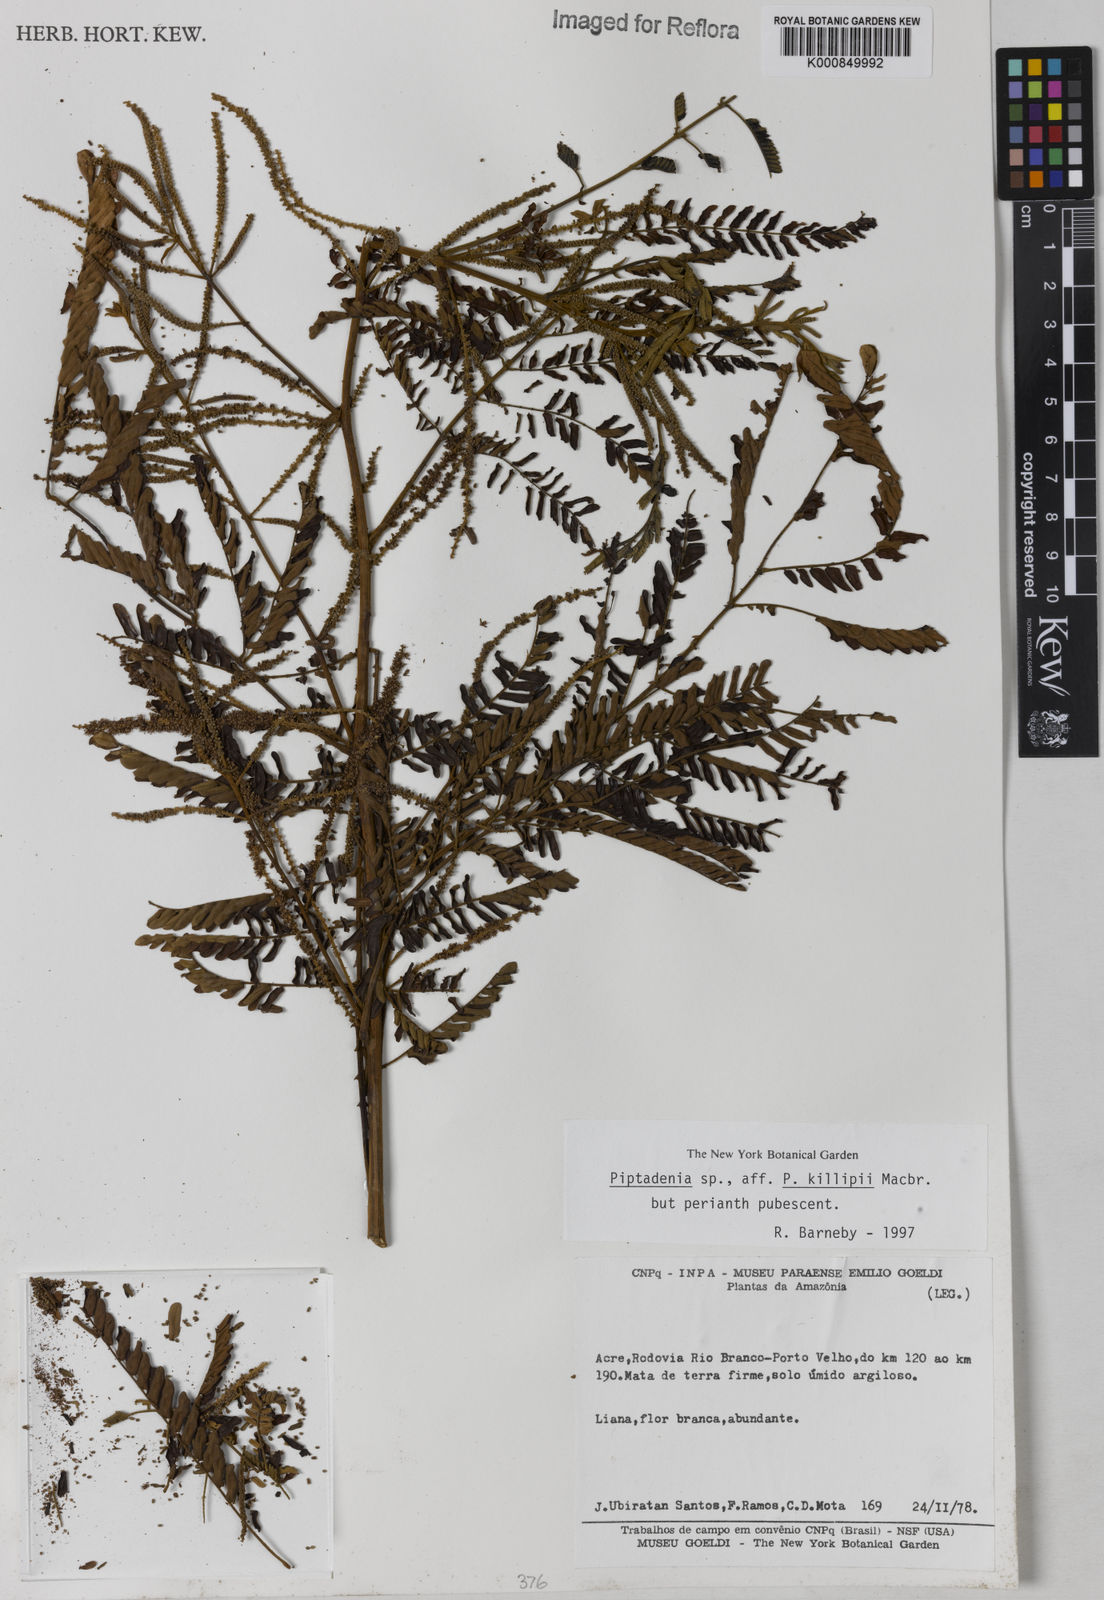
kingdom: Plantae
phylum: Tracheophyta
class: Magnoliopsida
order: Fabales
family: Fabaceae
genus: Piptadenia
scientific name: Piptadenia
